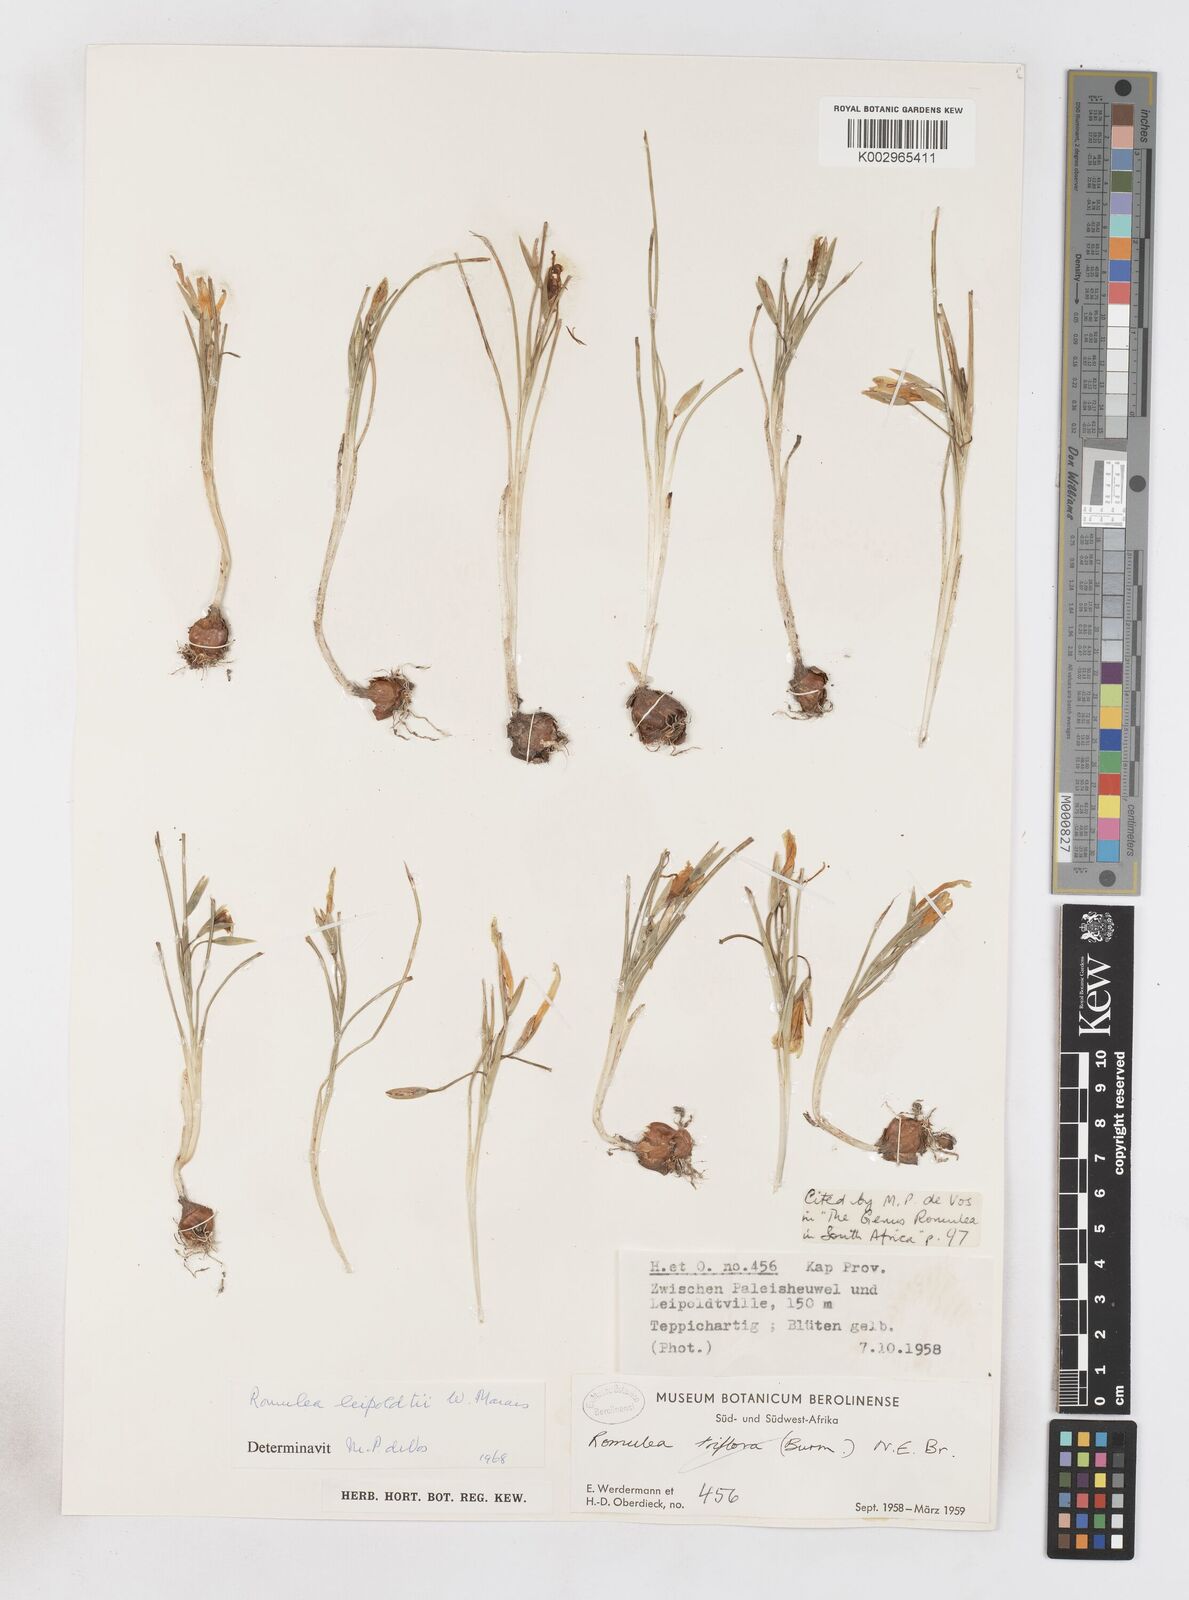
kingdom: Plantae
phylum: Tracheophyta
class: Liliopsida
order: Asparagales
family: Iridaceae
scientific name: Iridaceae
